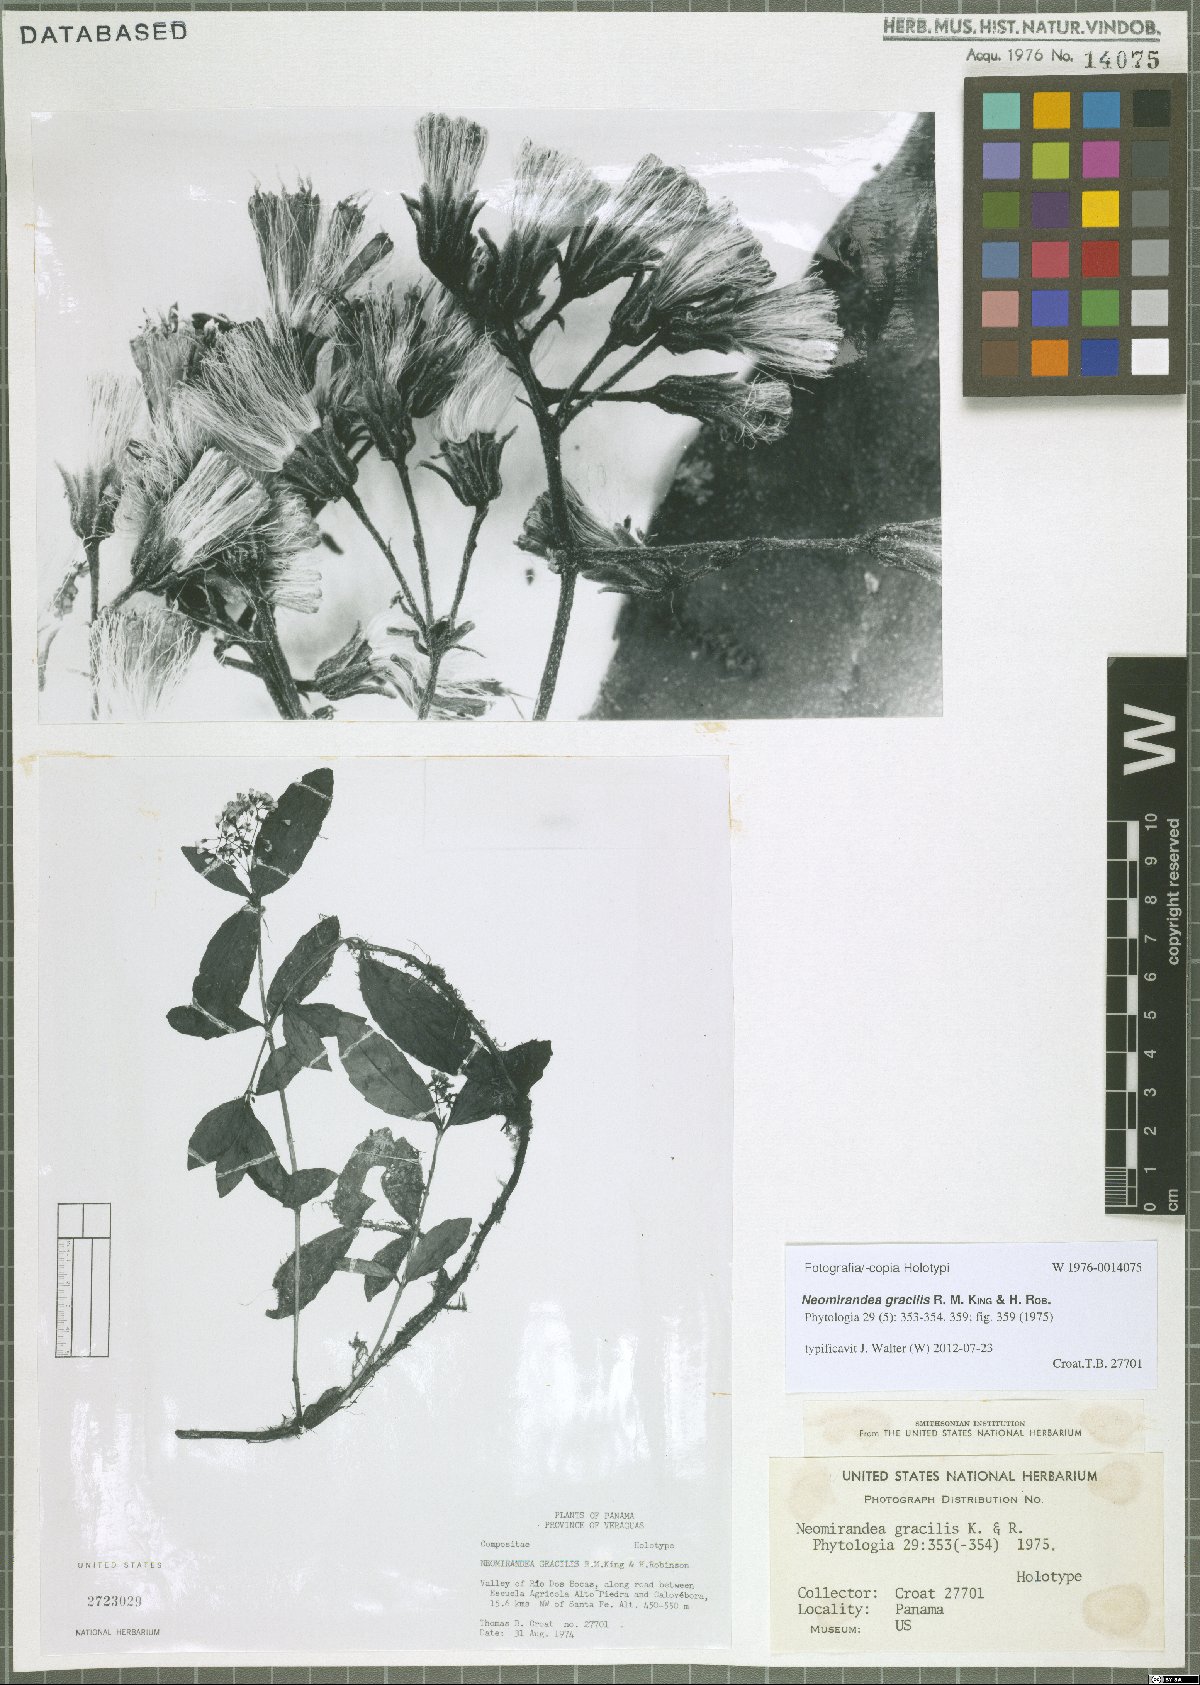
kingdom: Plantae
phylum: Tracheophyta
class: Magnoliopsida
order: Asterales
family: Asteraceae
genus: Neomirandea
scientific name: Neomirandea gracilis
